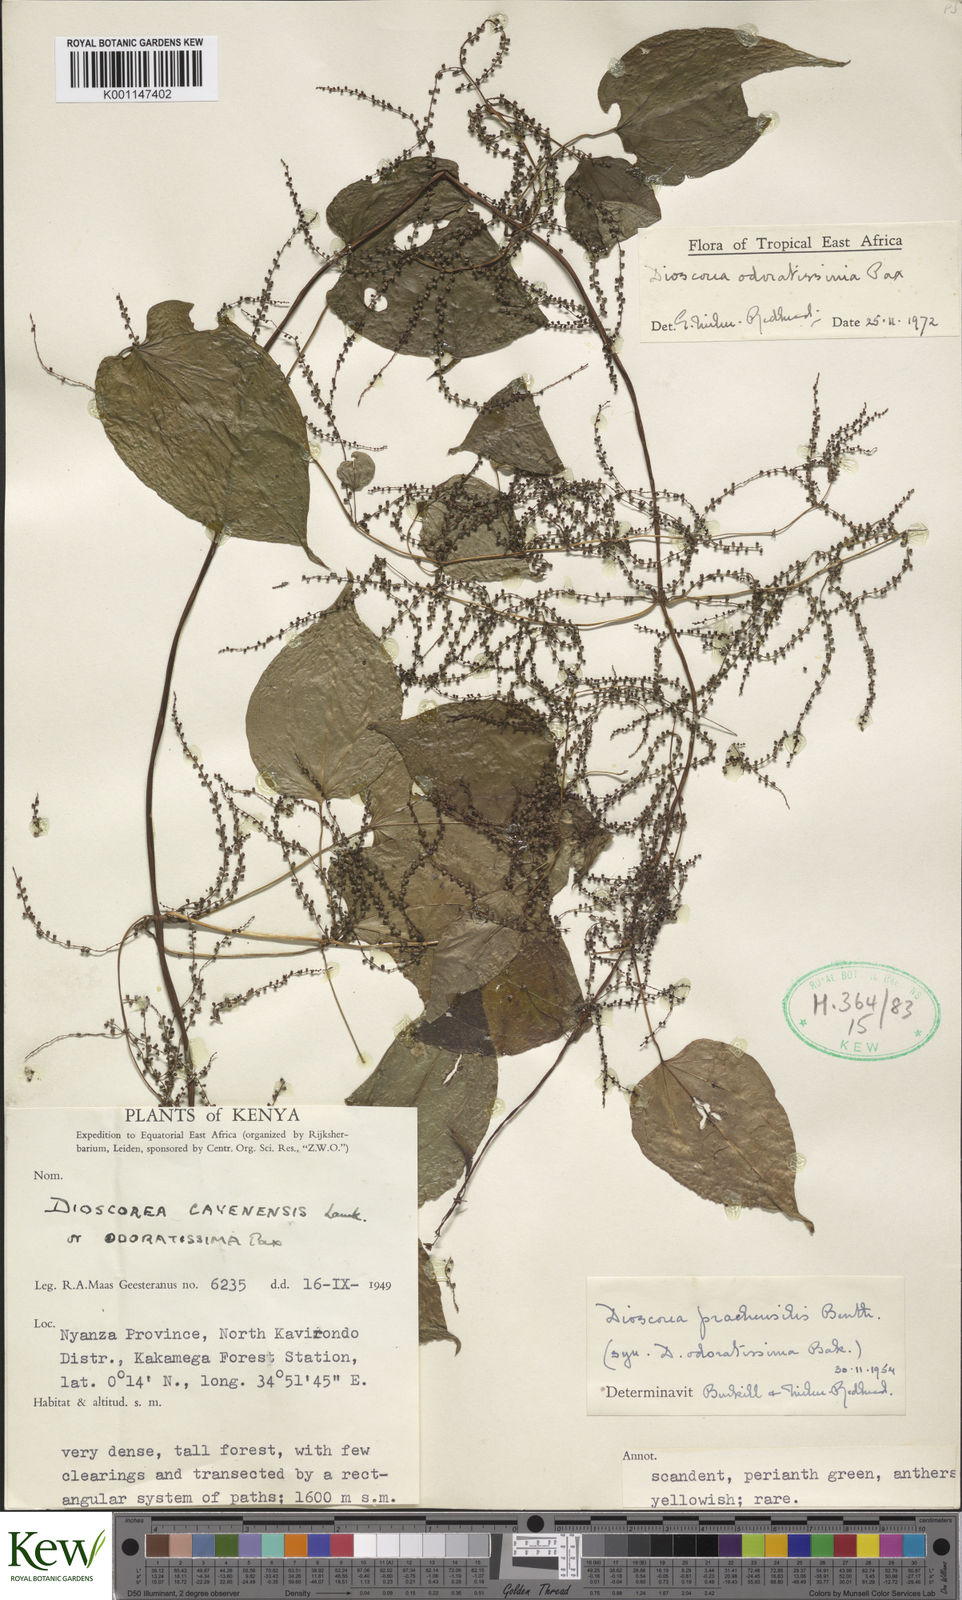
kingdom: Plantae
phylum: Tracheophyta
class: Liliopsida
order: Dioscoreales
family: Dioscoreaceae
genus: Dioscorea
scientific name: Dioscorea praehensilis
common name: Bush yam
